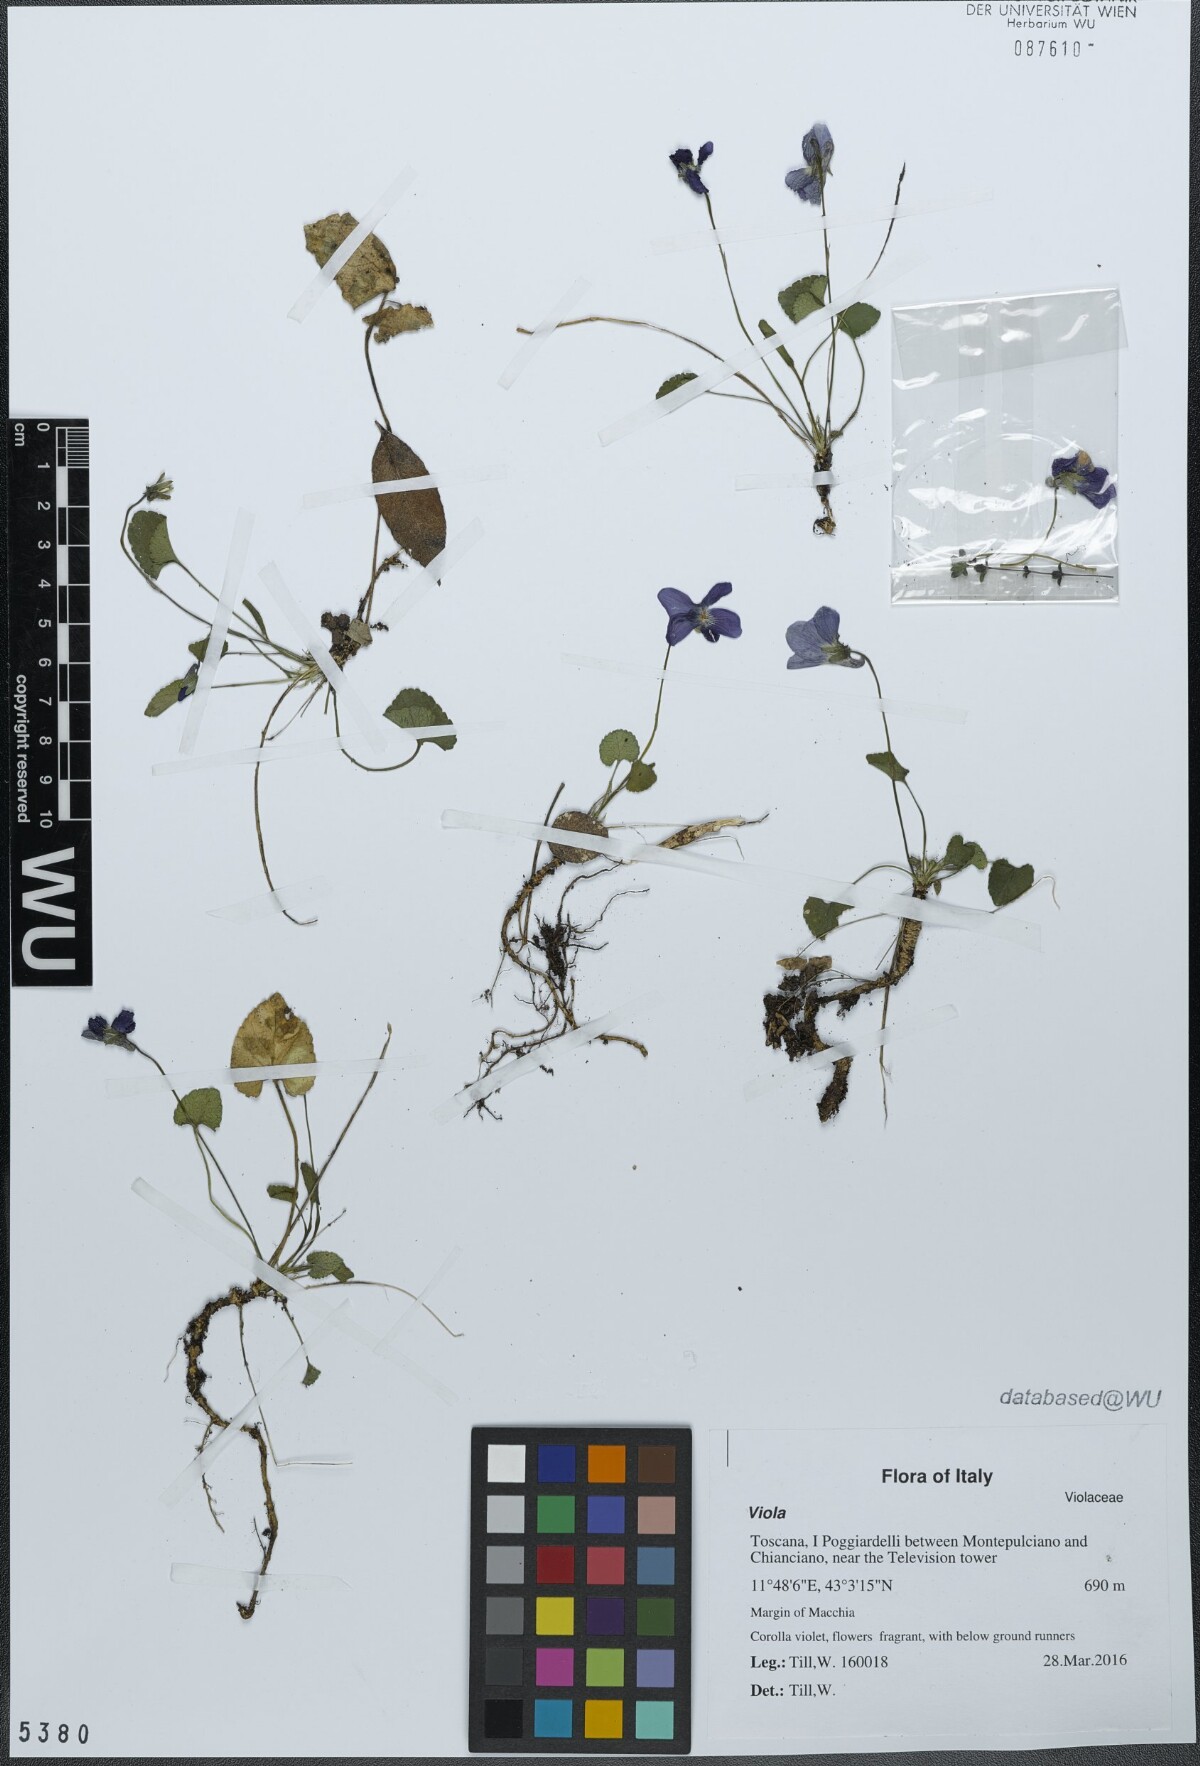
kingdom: Plantae
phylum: Tracheophyta
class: Magnoliopsida
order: Malpighiales
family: Violaceae
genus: Viola
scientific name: Viola alba
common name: White violet
